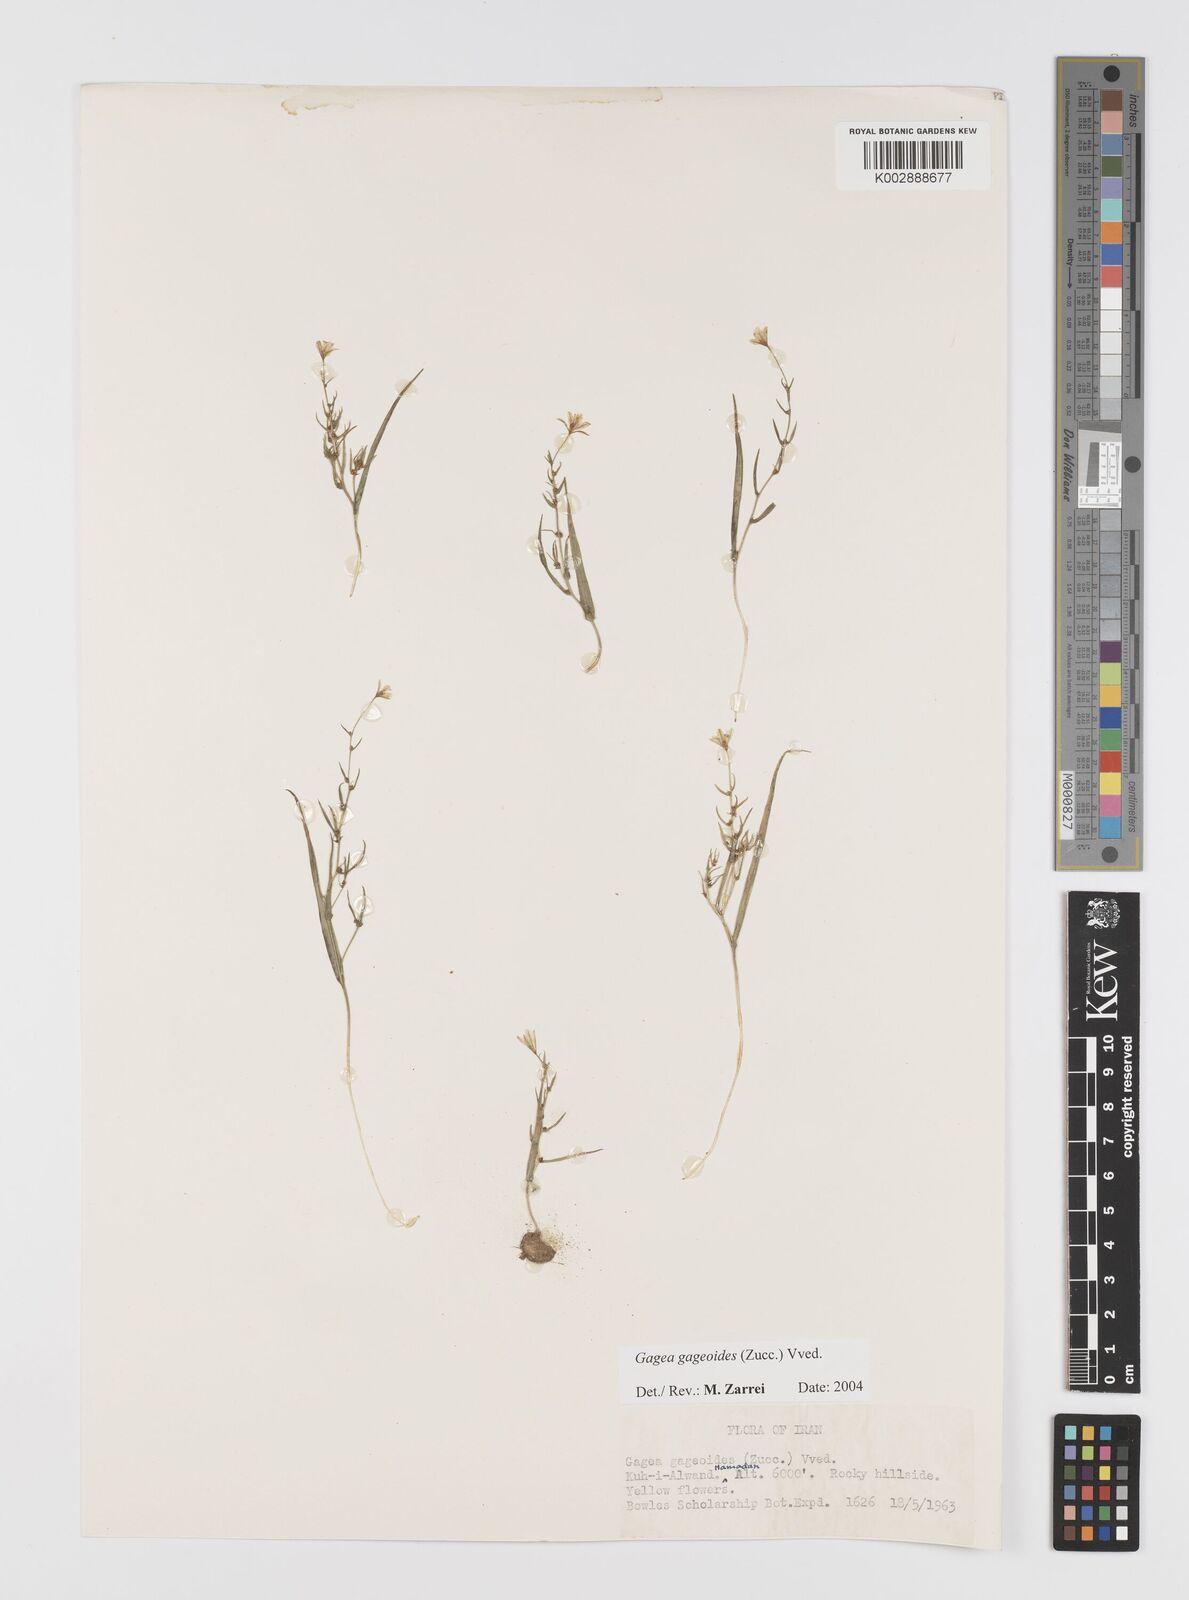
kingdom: Plantae
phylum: Tracheophyta
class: Liliopsida
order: Liliales
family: Liliaceae
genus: Gagea
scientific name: Gagea gageoides
